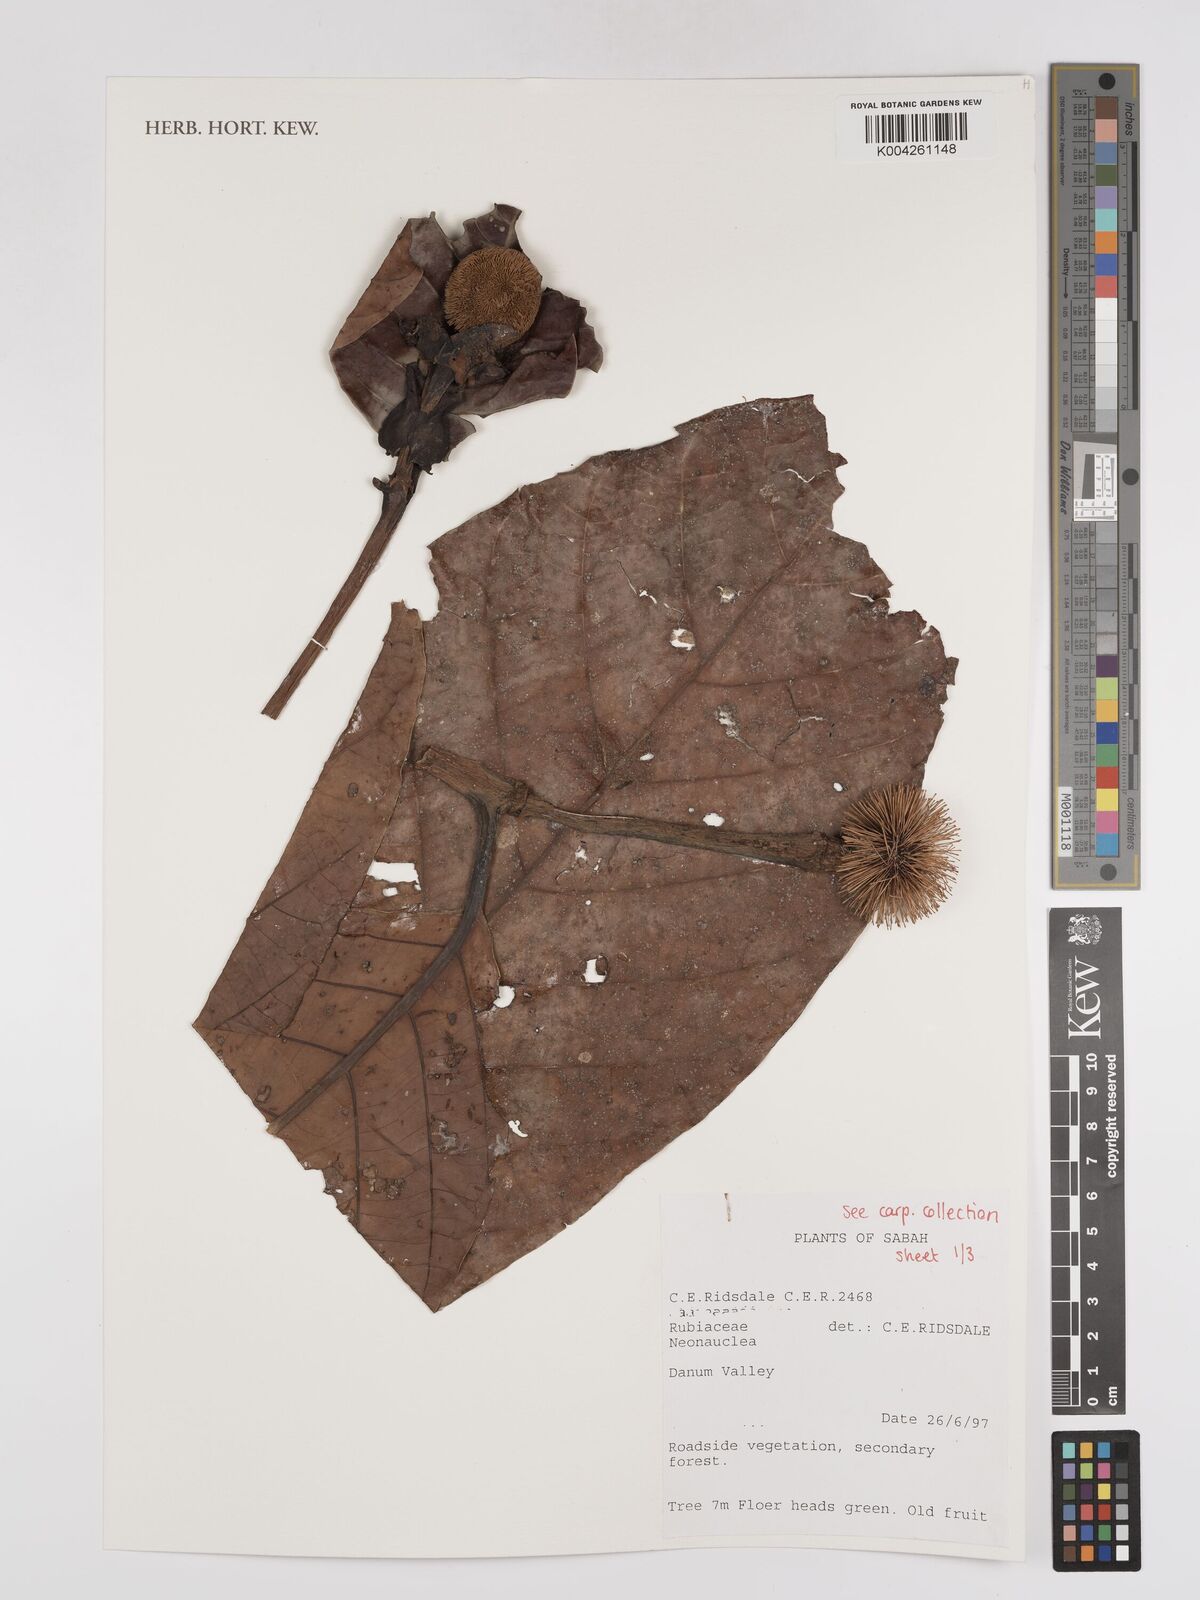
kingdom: Plantae
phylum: Tracheophyta
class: Magnoliopsida
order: Gentianales
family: Rubiaceae
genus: Neonauclea
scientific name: Neonauclea
